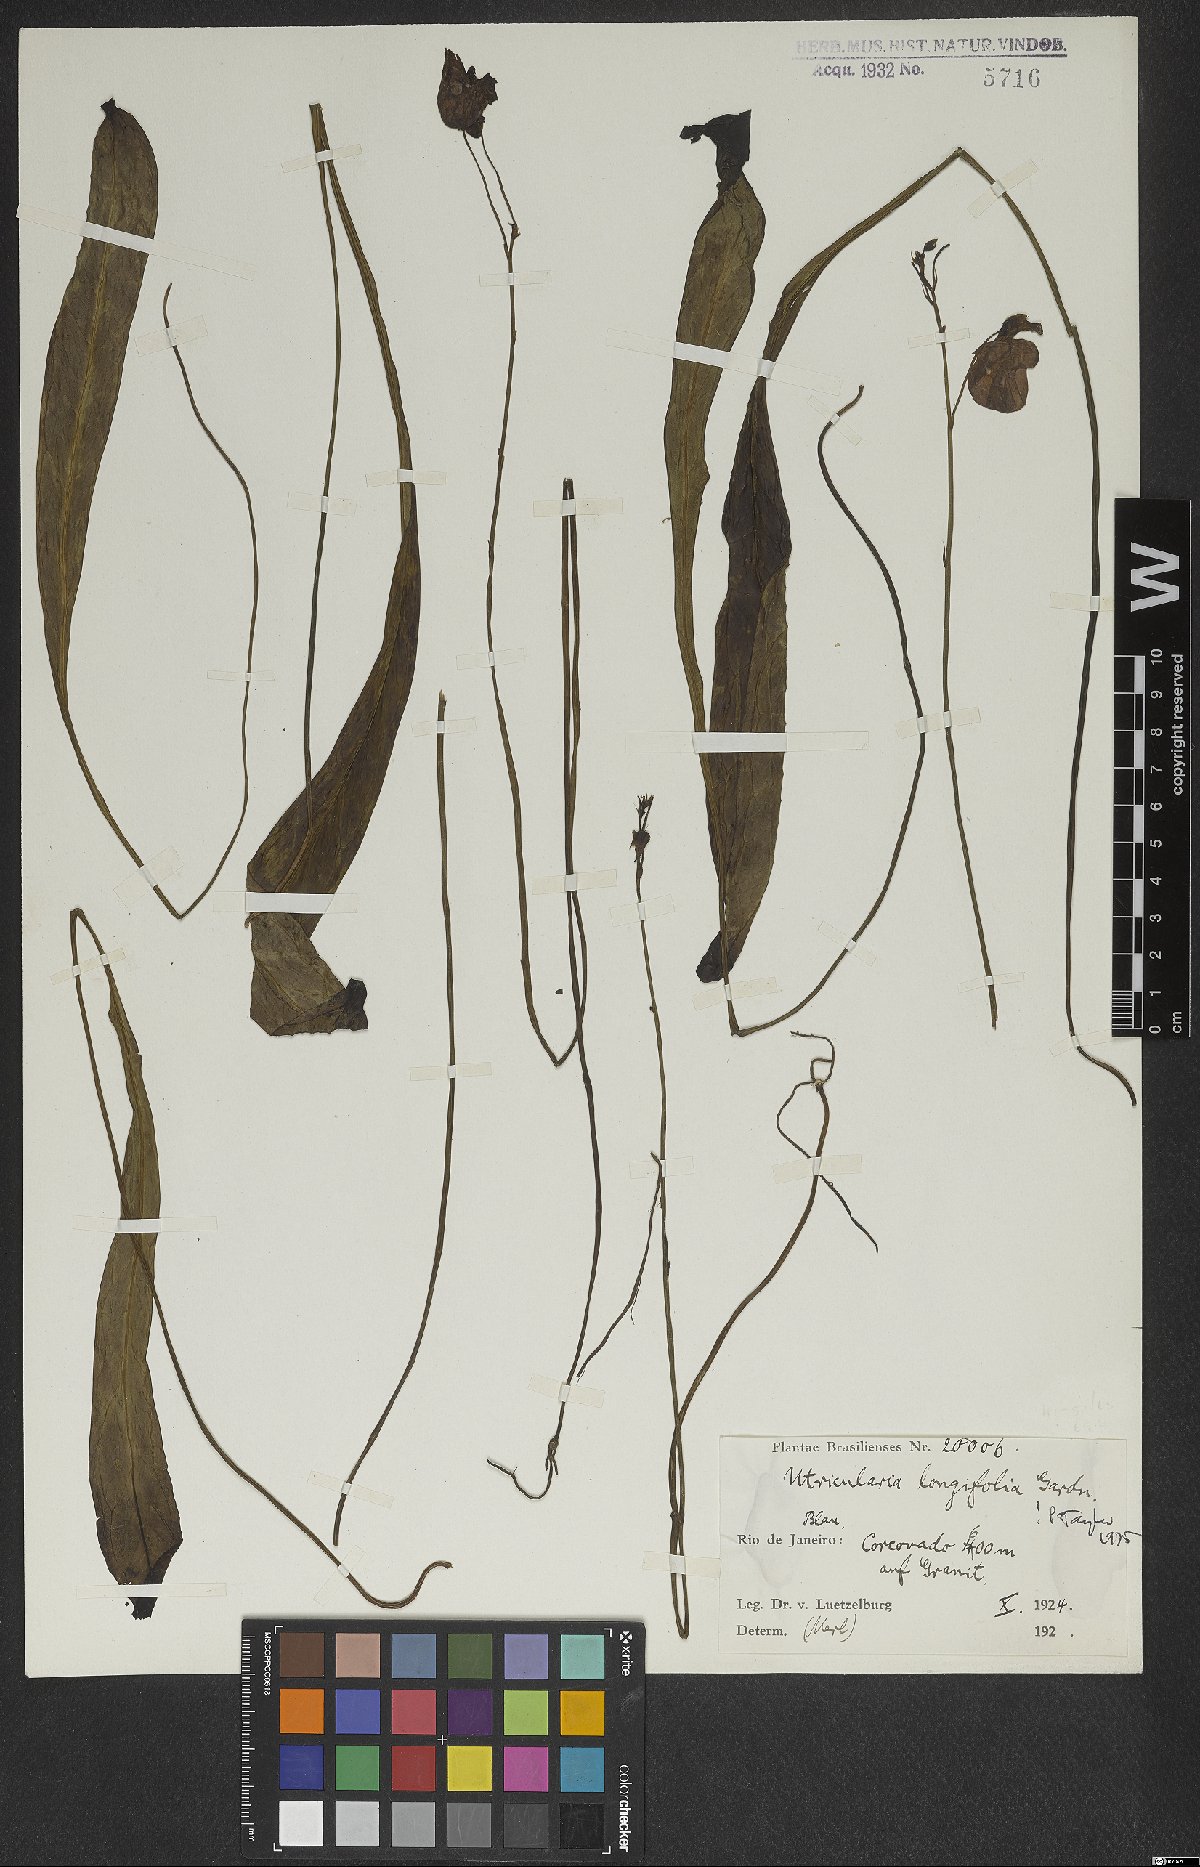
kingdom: Plantae
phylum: Tracheophyta
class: Magnoliopsida
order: Lamiales
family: Lentibulariaceae
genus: Utricularia
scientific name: Utricularia longifolia
